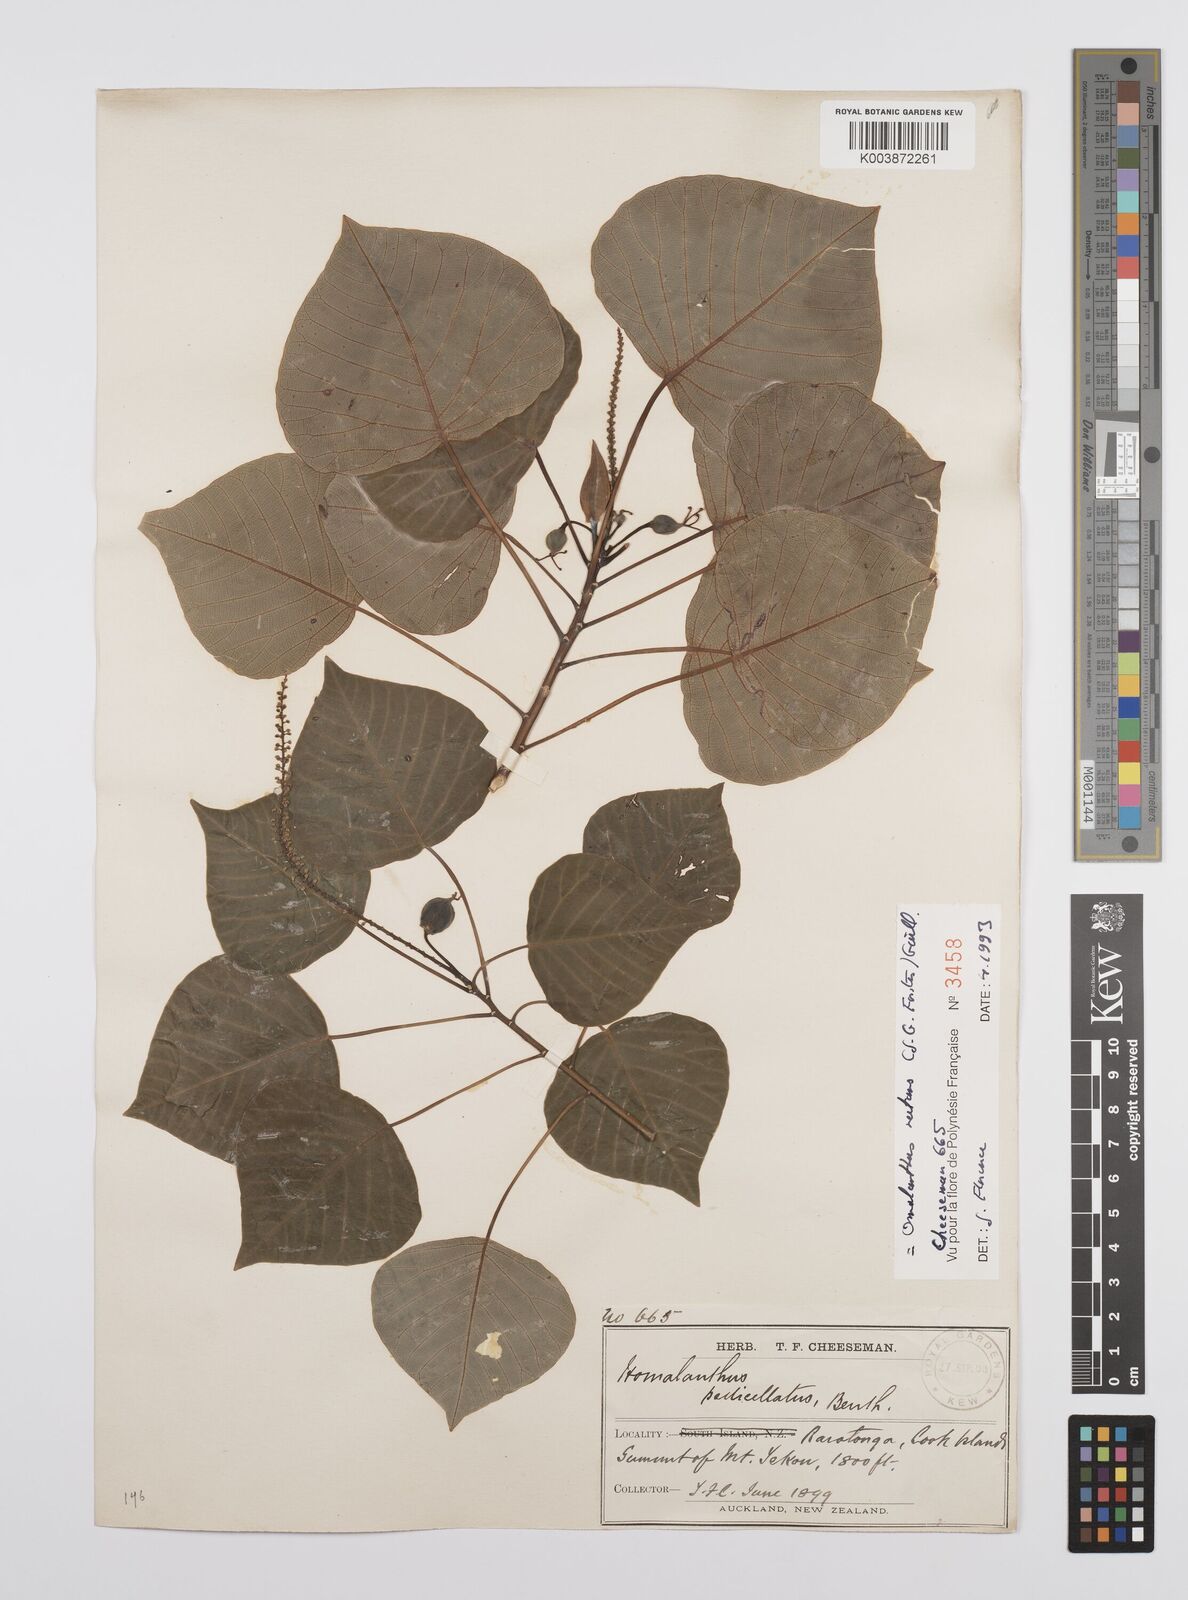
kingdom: Plantae
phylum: Tracheophyta
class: Magnoliopsida
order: Malpighiales
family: Euphorbiaceae
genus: Homalanthus
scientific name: Homalanthus nutans
